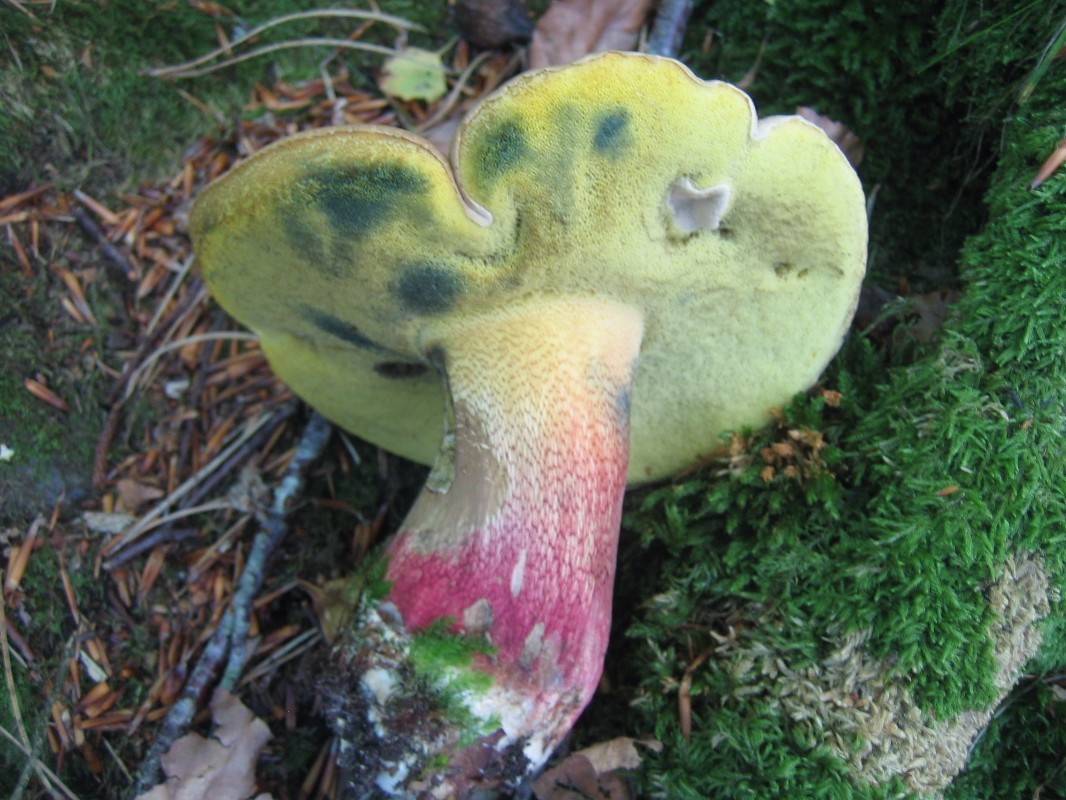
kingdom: Fungi
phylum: Basidiomycota
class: Agaricomycetes
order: Boletales
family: Boletaceae
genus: Caloboletus
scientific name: Caloboletus calopus
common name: skønfodet rørhat
